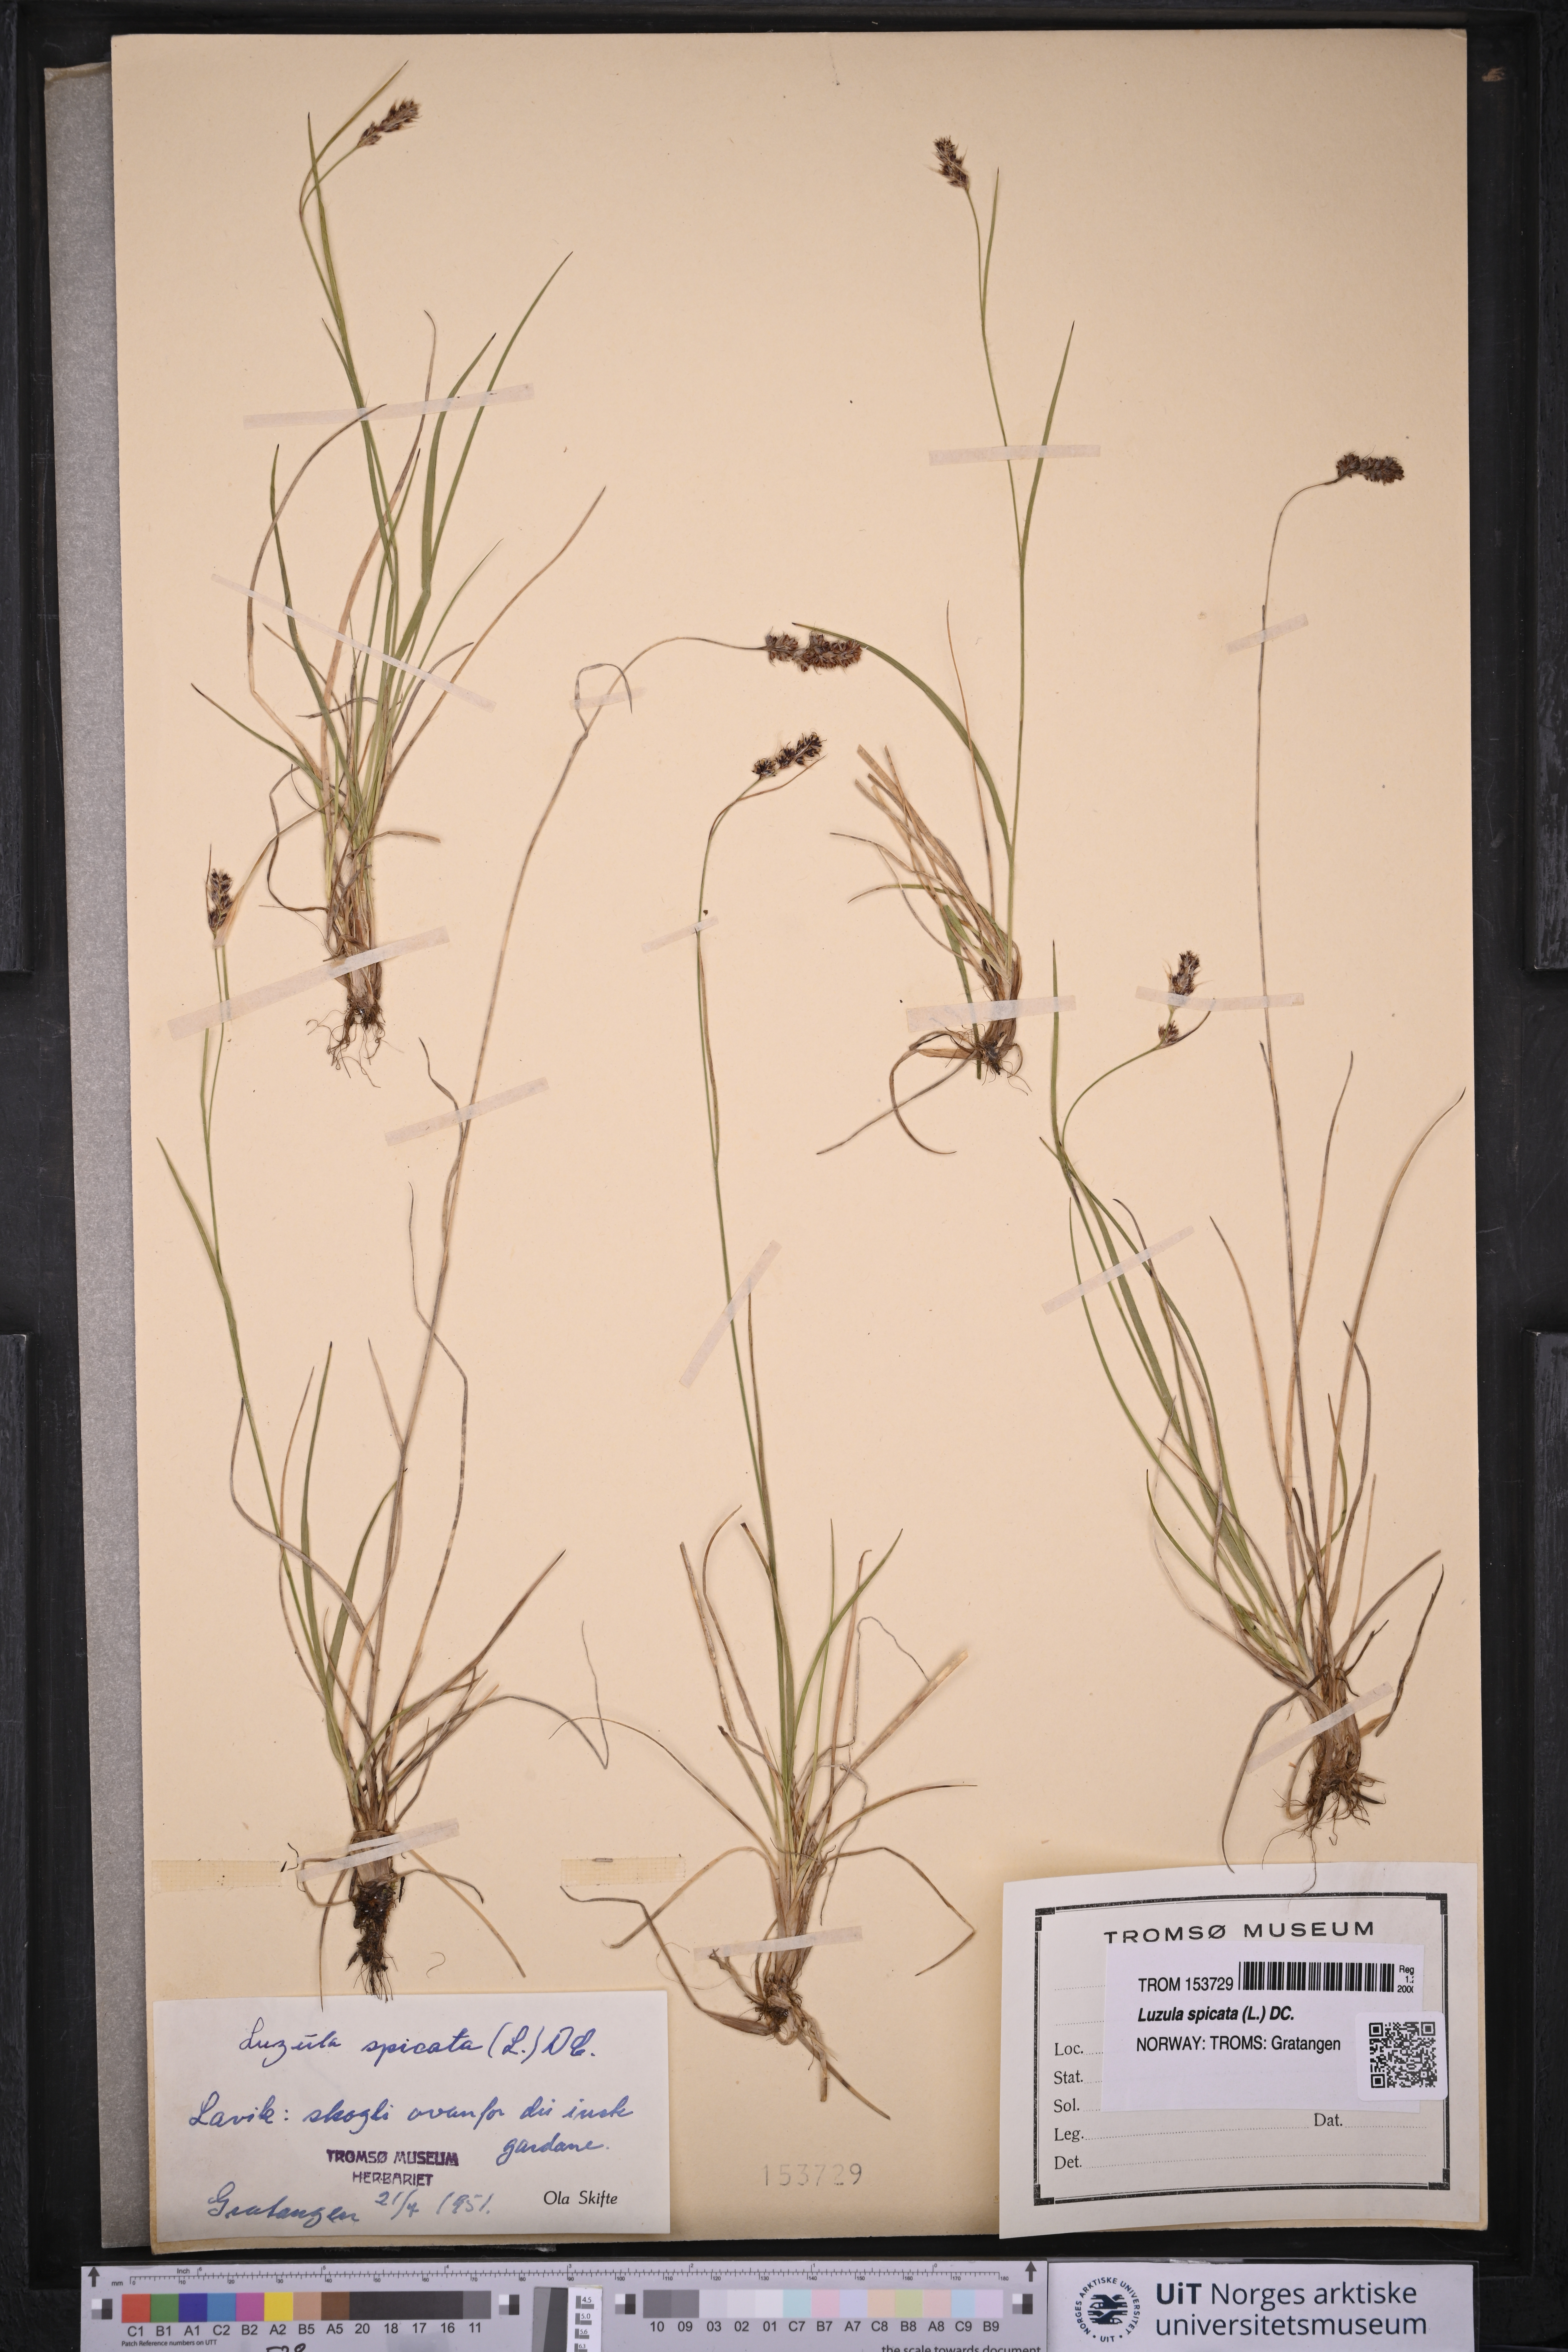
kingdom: Plantae
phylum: Tracheophyta
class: Liliopsida
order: Poales
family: Juncaceae
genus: Luzula
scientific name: Luzula spicata
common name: Spiked wood-rush
